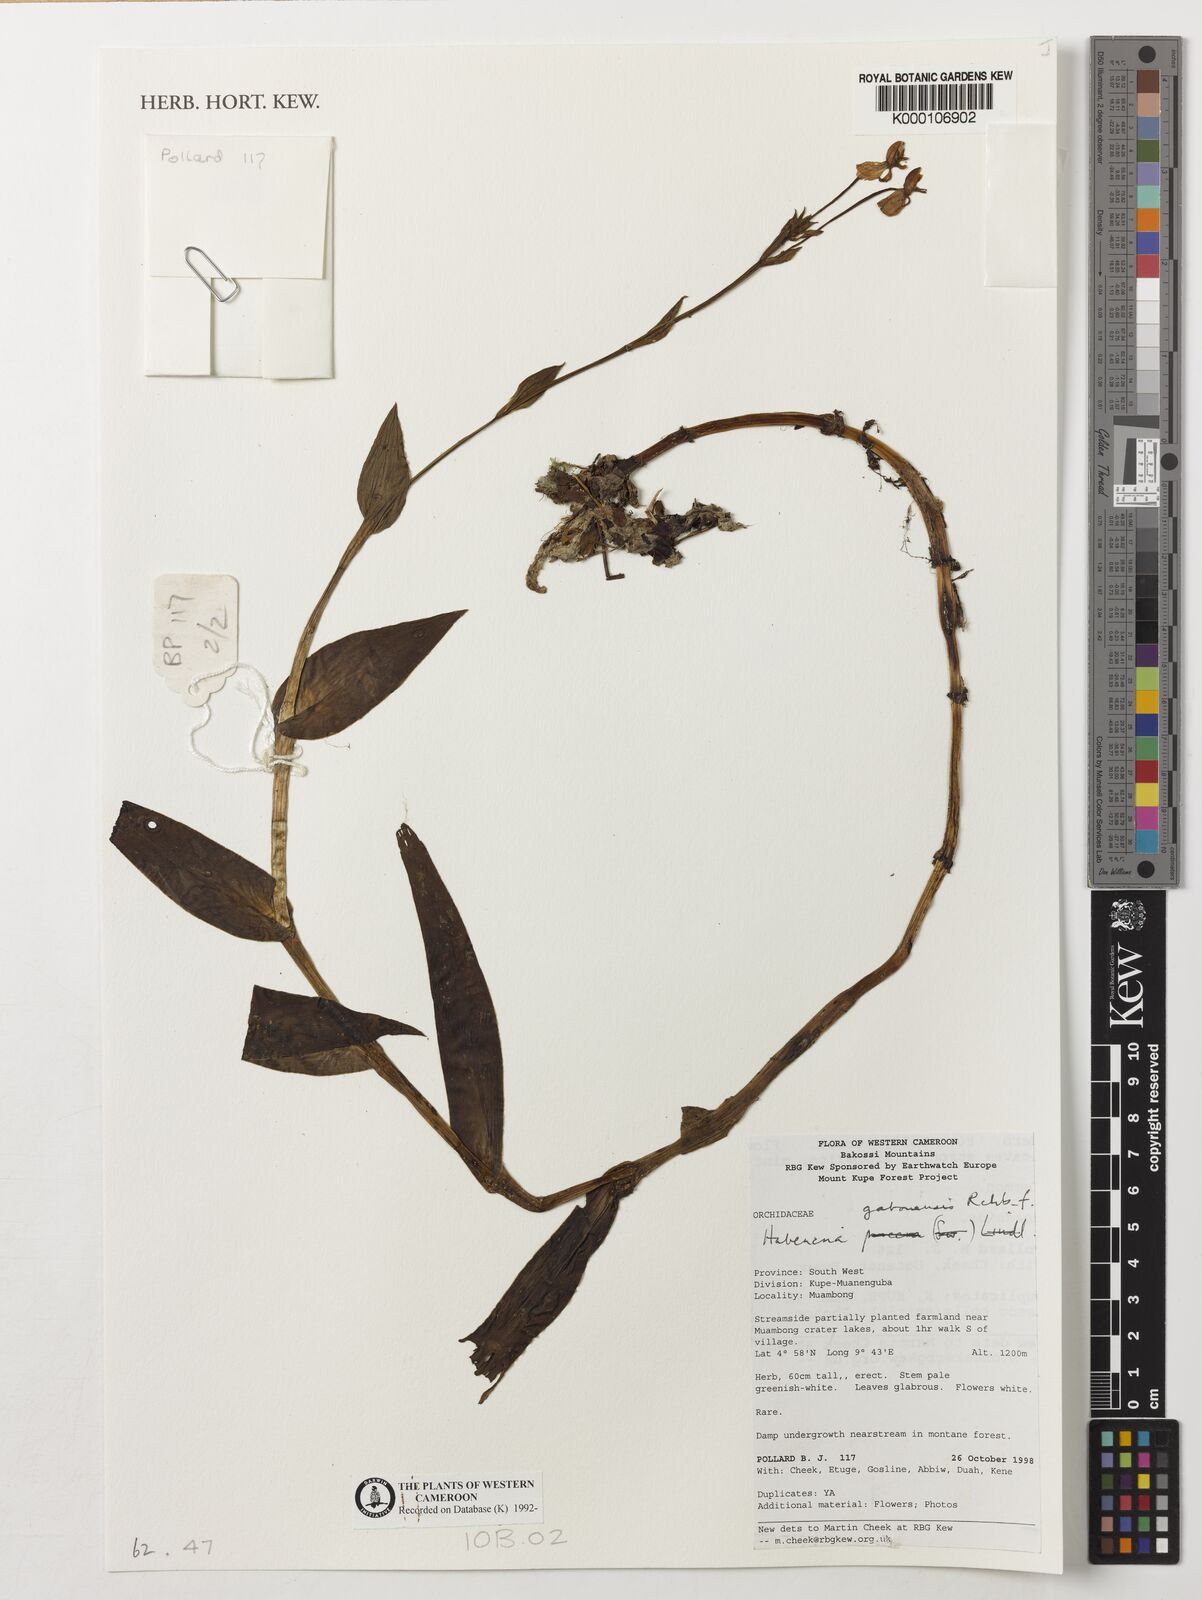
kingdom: Plantae
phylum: Tracheophyta
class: Liliopsida
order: Asparagales
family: Orchidaceae
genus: Habenaria
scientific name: Habenaria procera
